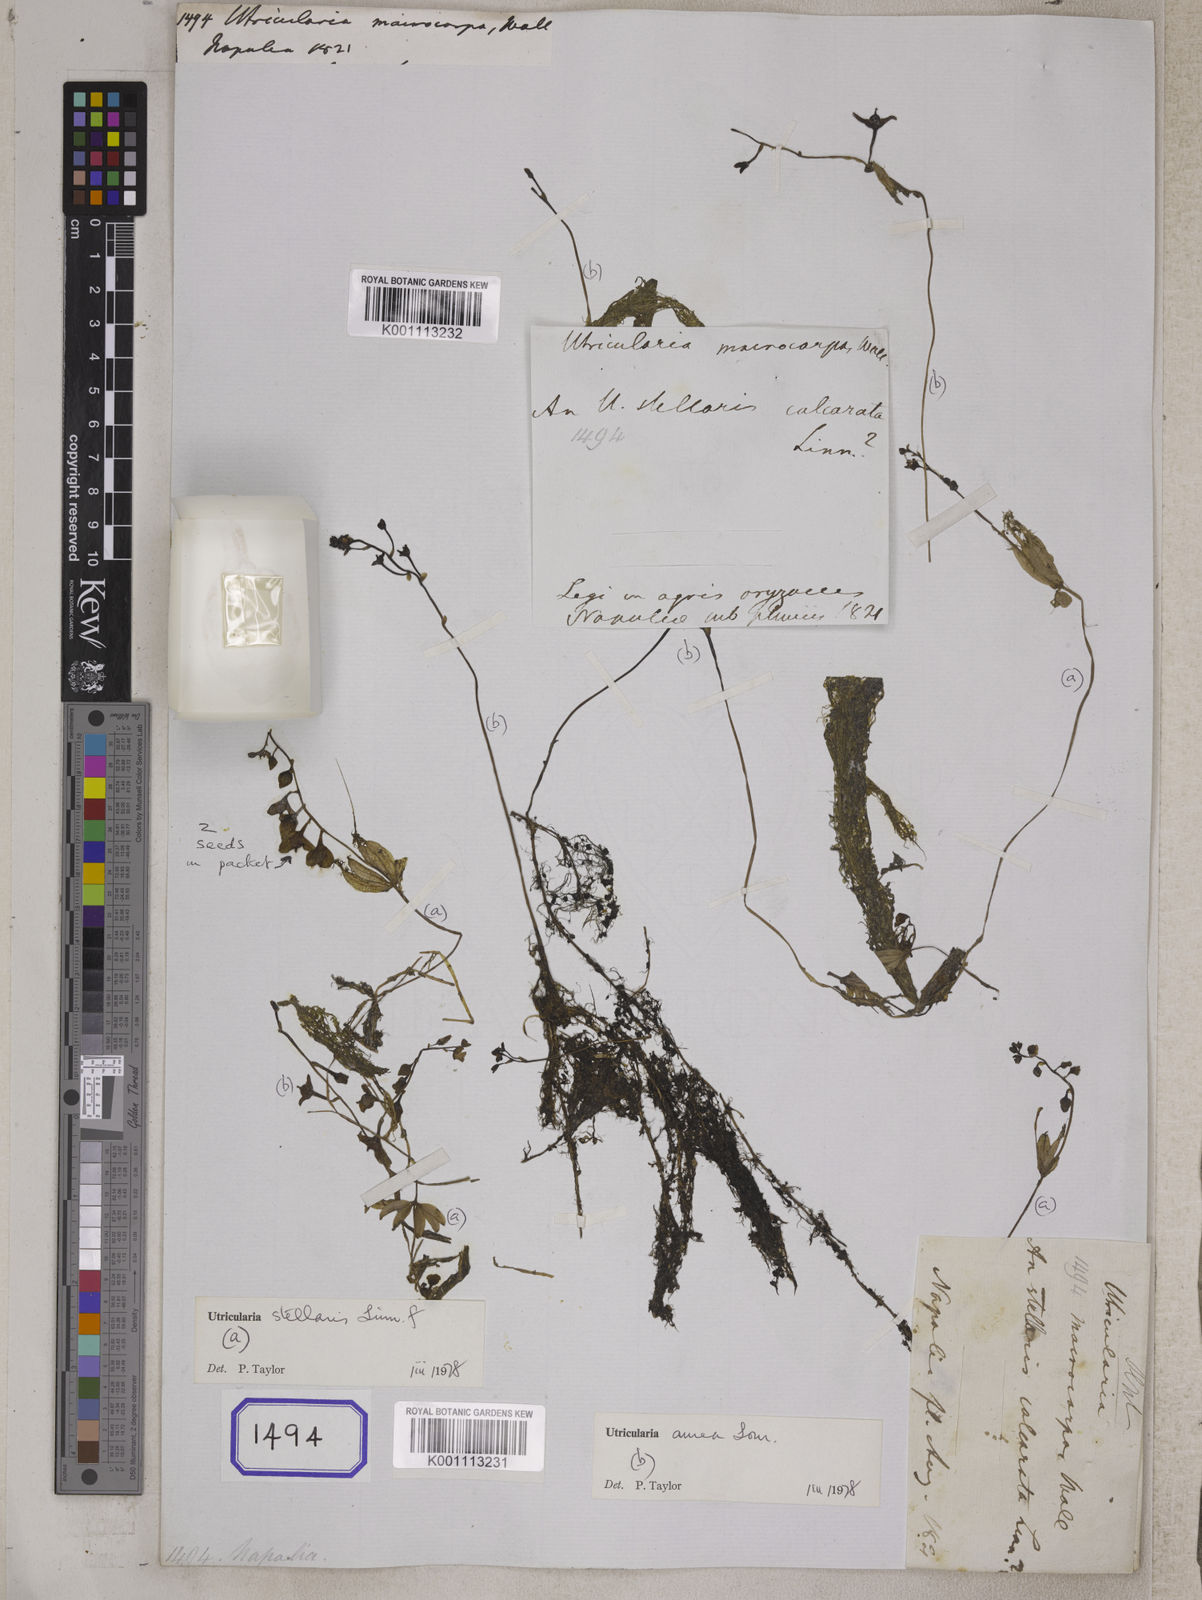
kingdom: Plantae
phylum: Tracheophyta
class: Magnoliopsida
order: Lamiales
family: Lentibulariaceae
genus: Utricularia
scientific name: Utricularia stellaris
